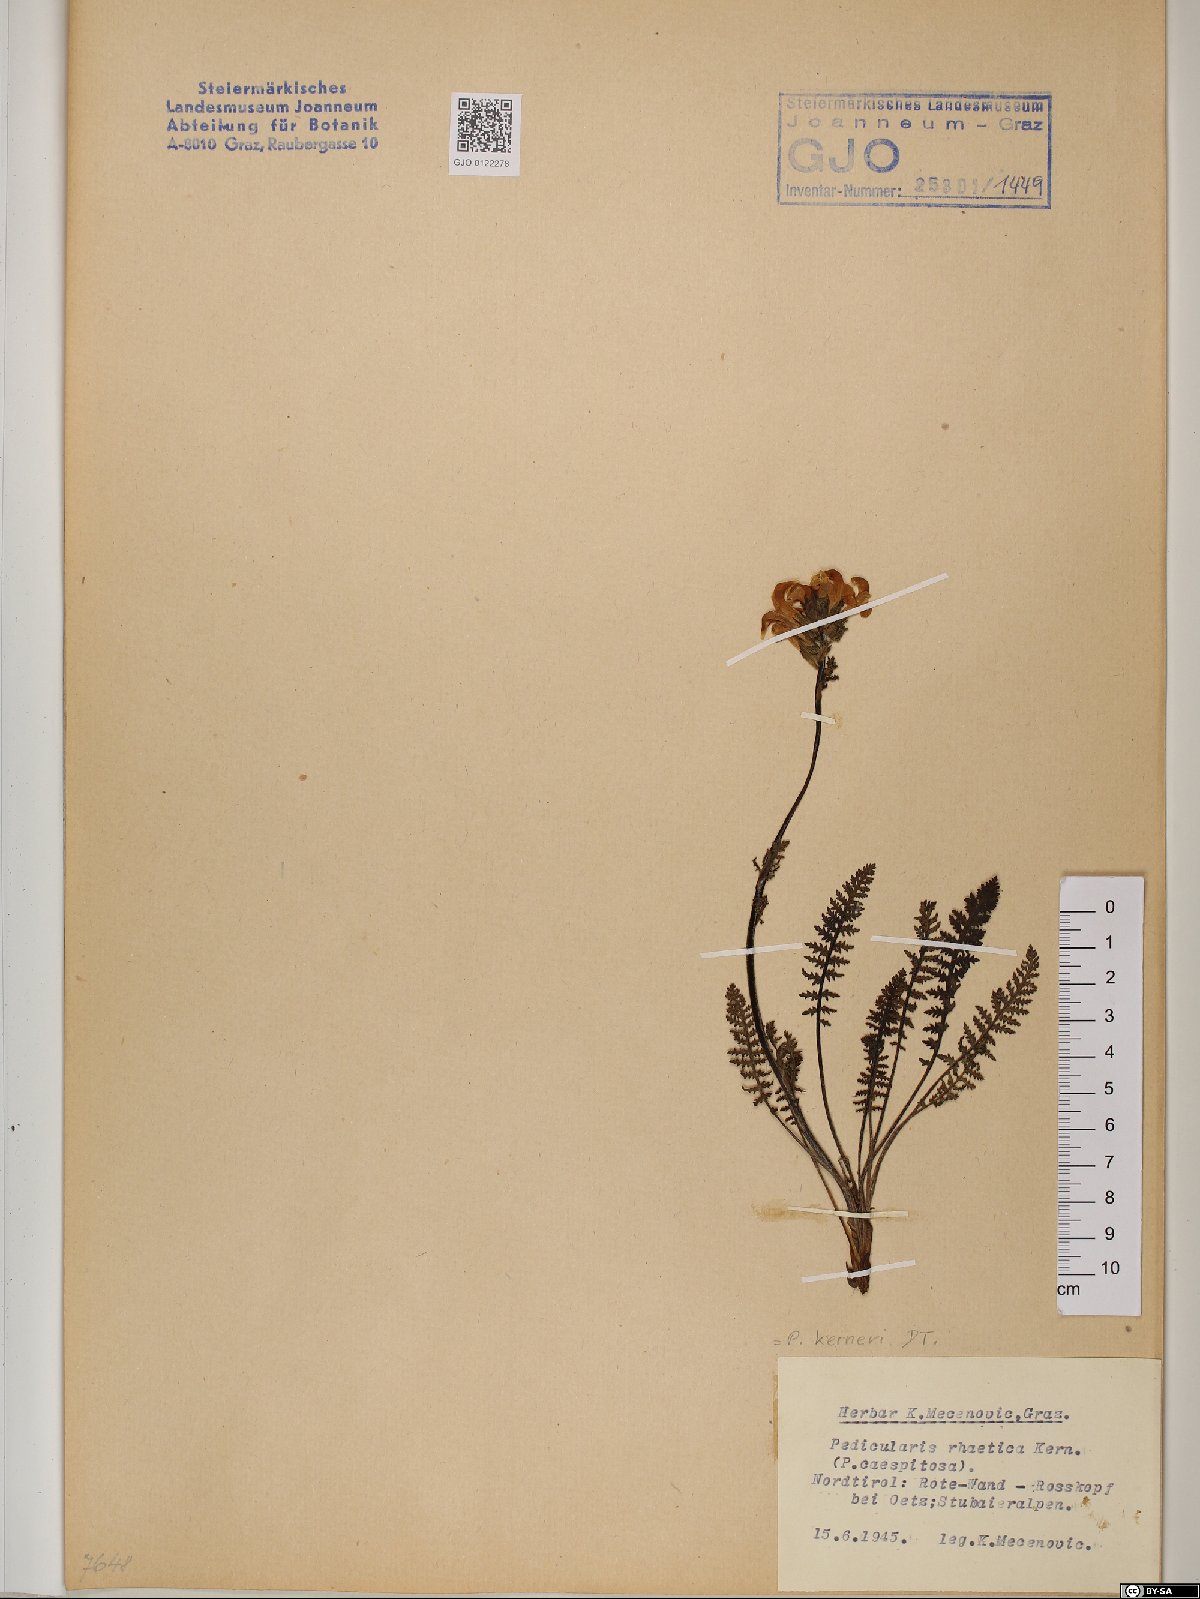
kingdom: Plantae
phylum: Tracheophyta
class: Magnoliopsida
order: Lamiales
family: Orobanchaceae
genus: Pedicularis
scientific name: Pedicularis kerneri
